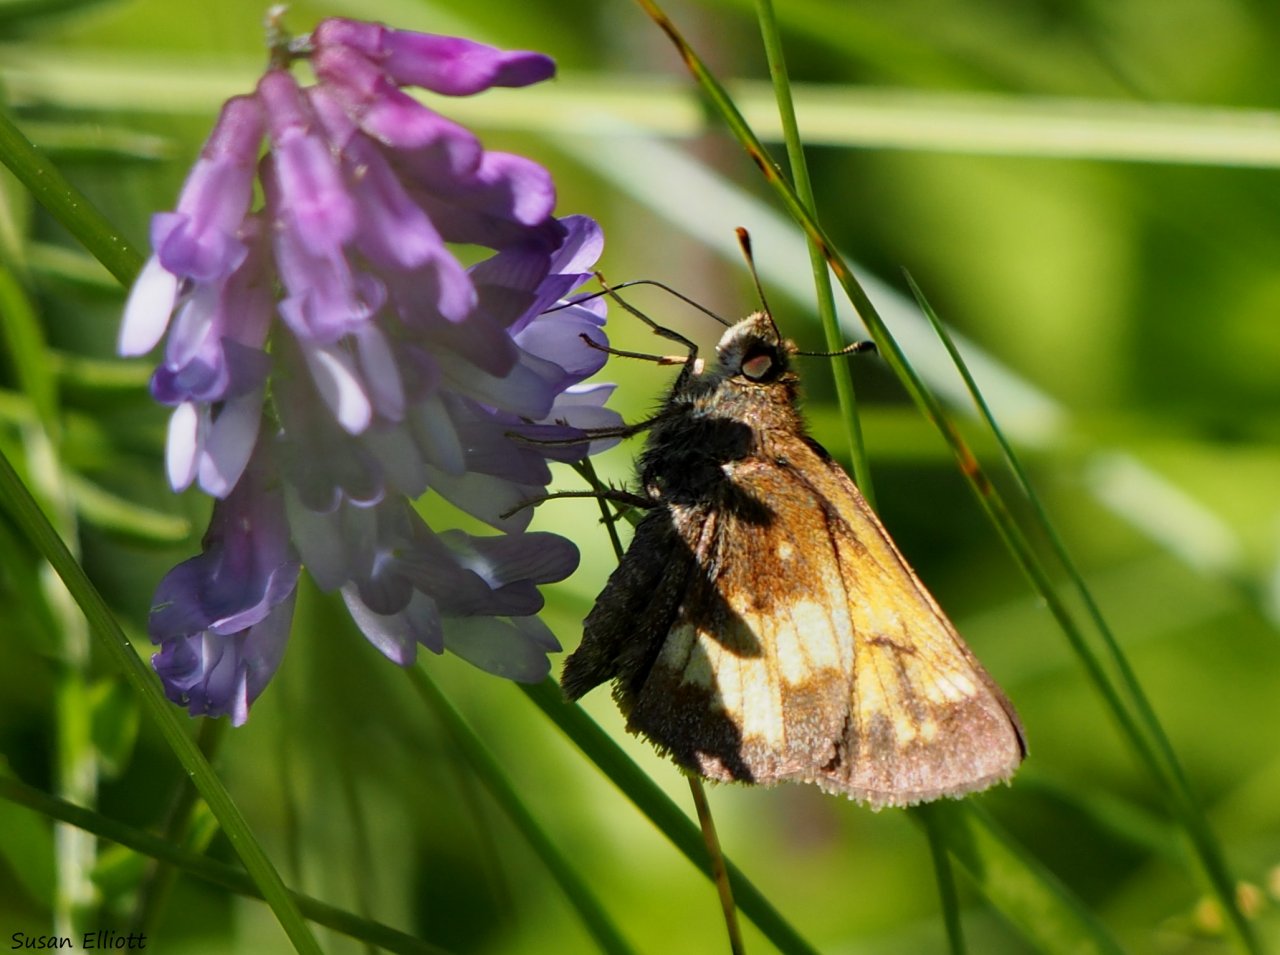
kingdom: Animalia
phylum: Arthropoda
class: Insecta
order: Lepidoptera
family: Hesperiidae
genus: Lon
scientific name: Lon hobomok
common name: Hobomok Skipper
